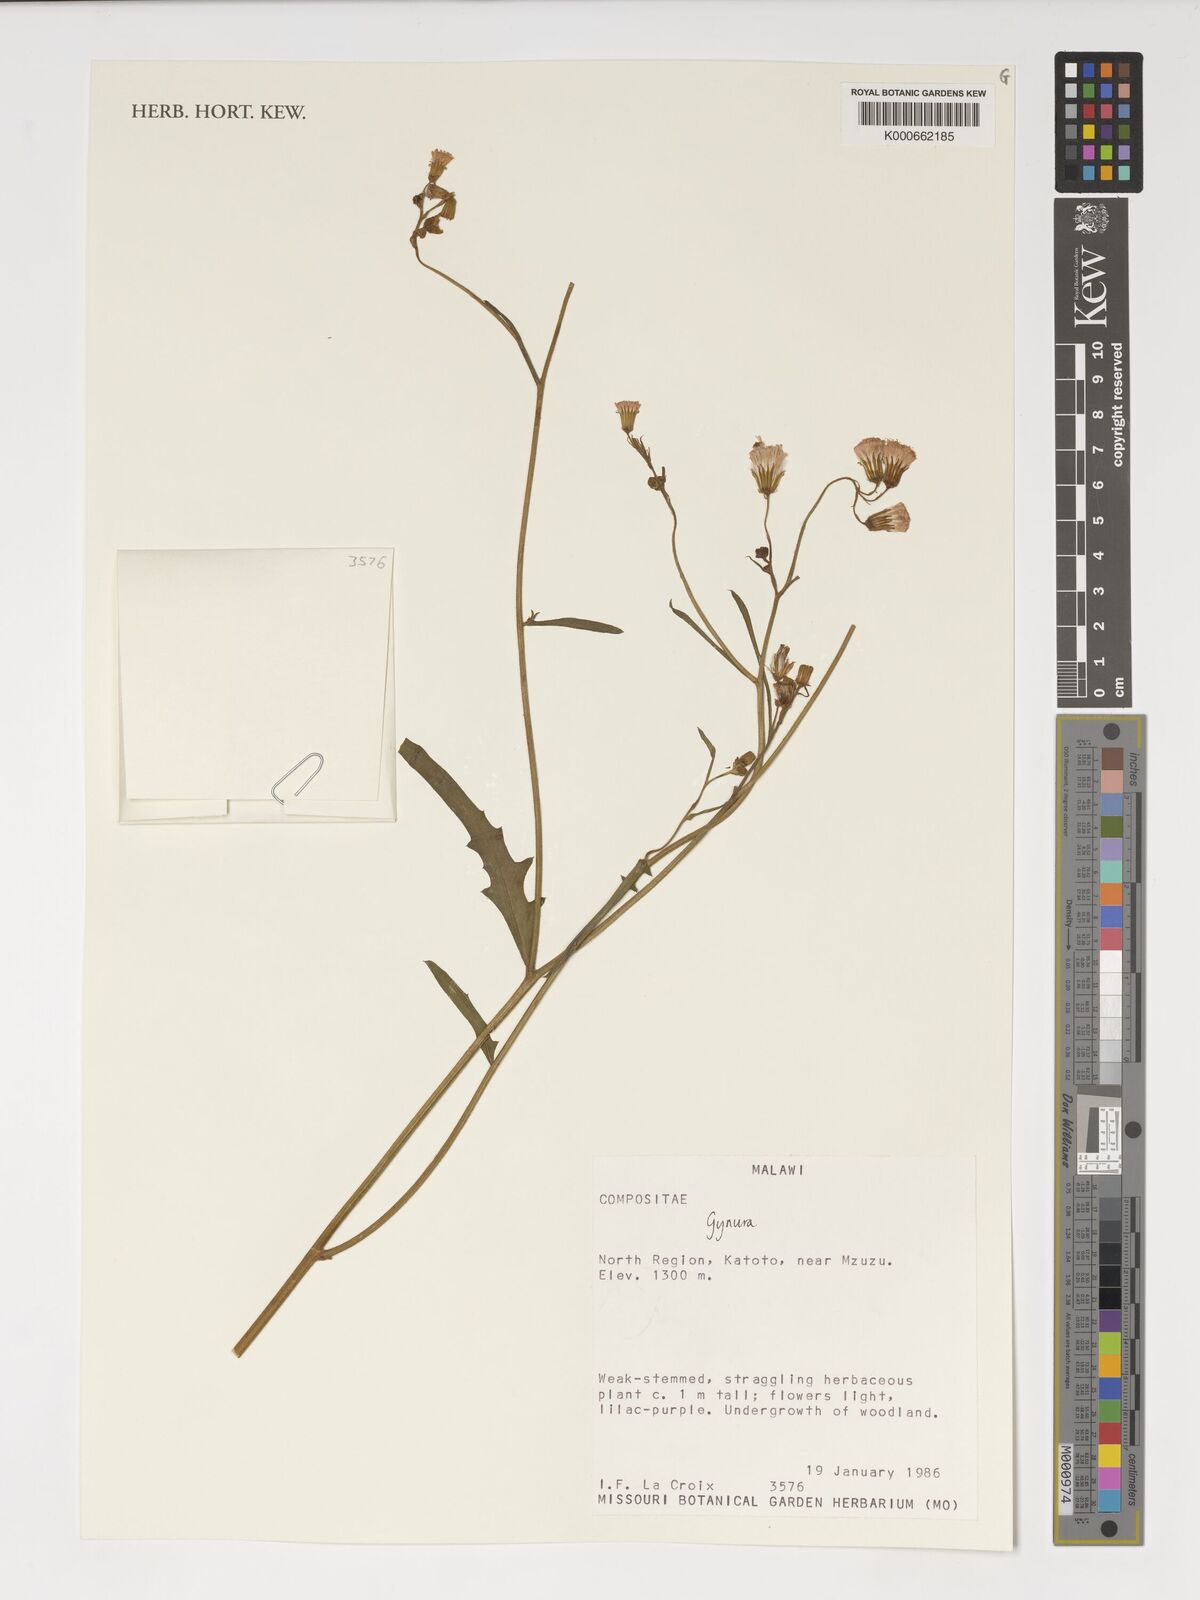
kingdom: Plantae
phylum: Tracheophyta
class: Magnoliopsida
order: Asterales
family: Asteraceae
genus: Gynura
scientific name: Gynura
